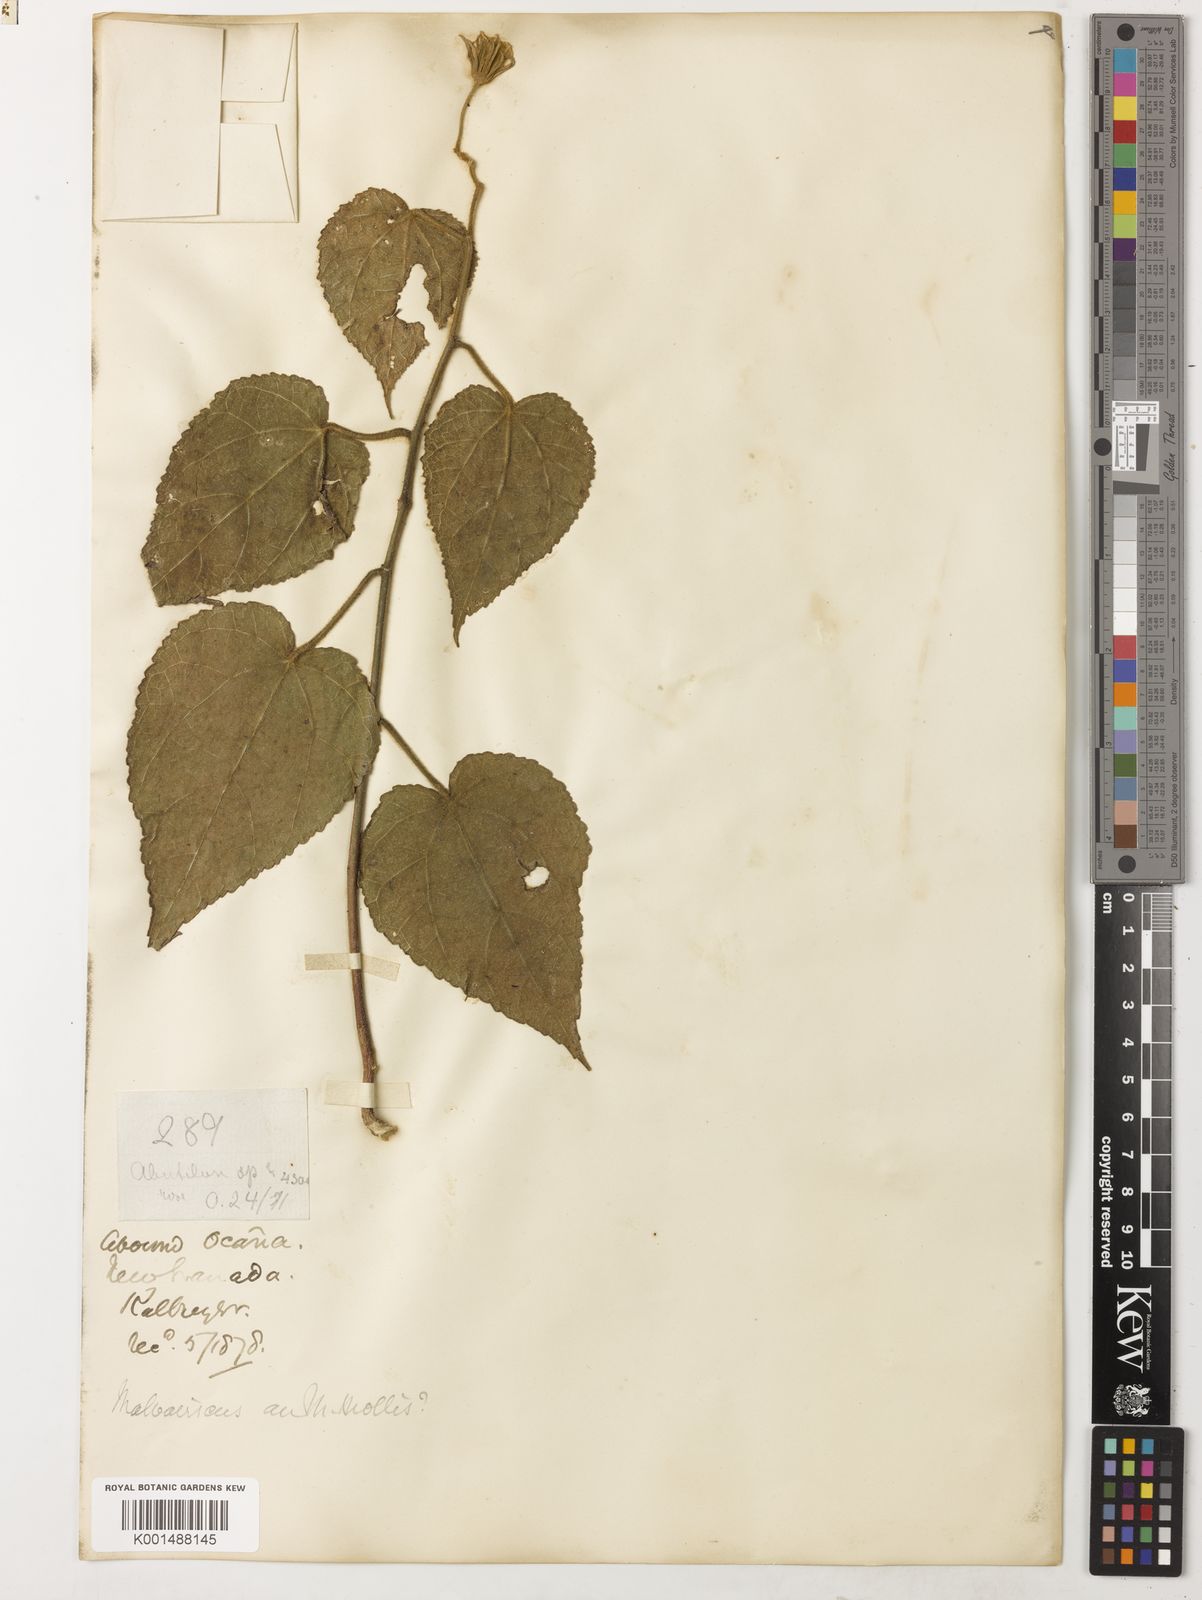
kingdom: Plantae
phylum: Tracheophyta
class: Magnoliopsida
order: Malvales
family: Malvaceae
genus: Malvaviscus
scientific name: Malvaviscus arboreus
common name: Wax mallow
